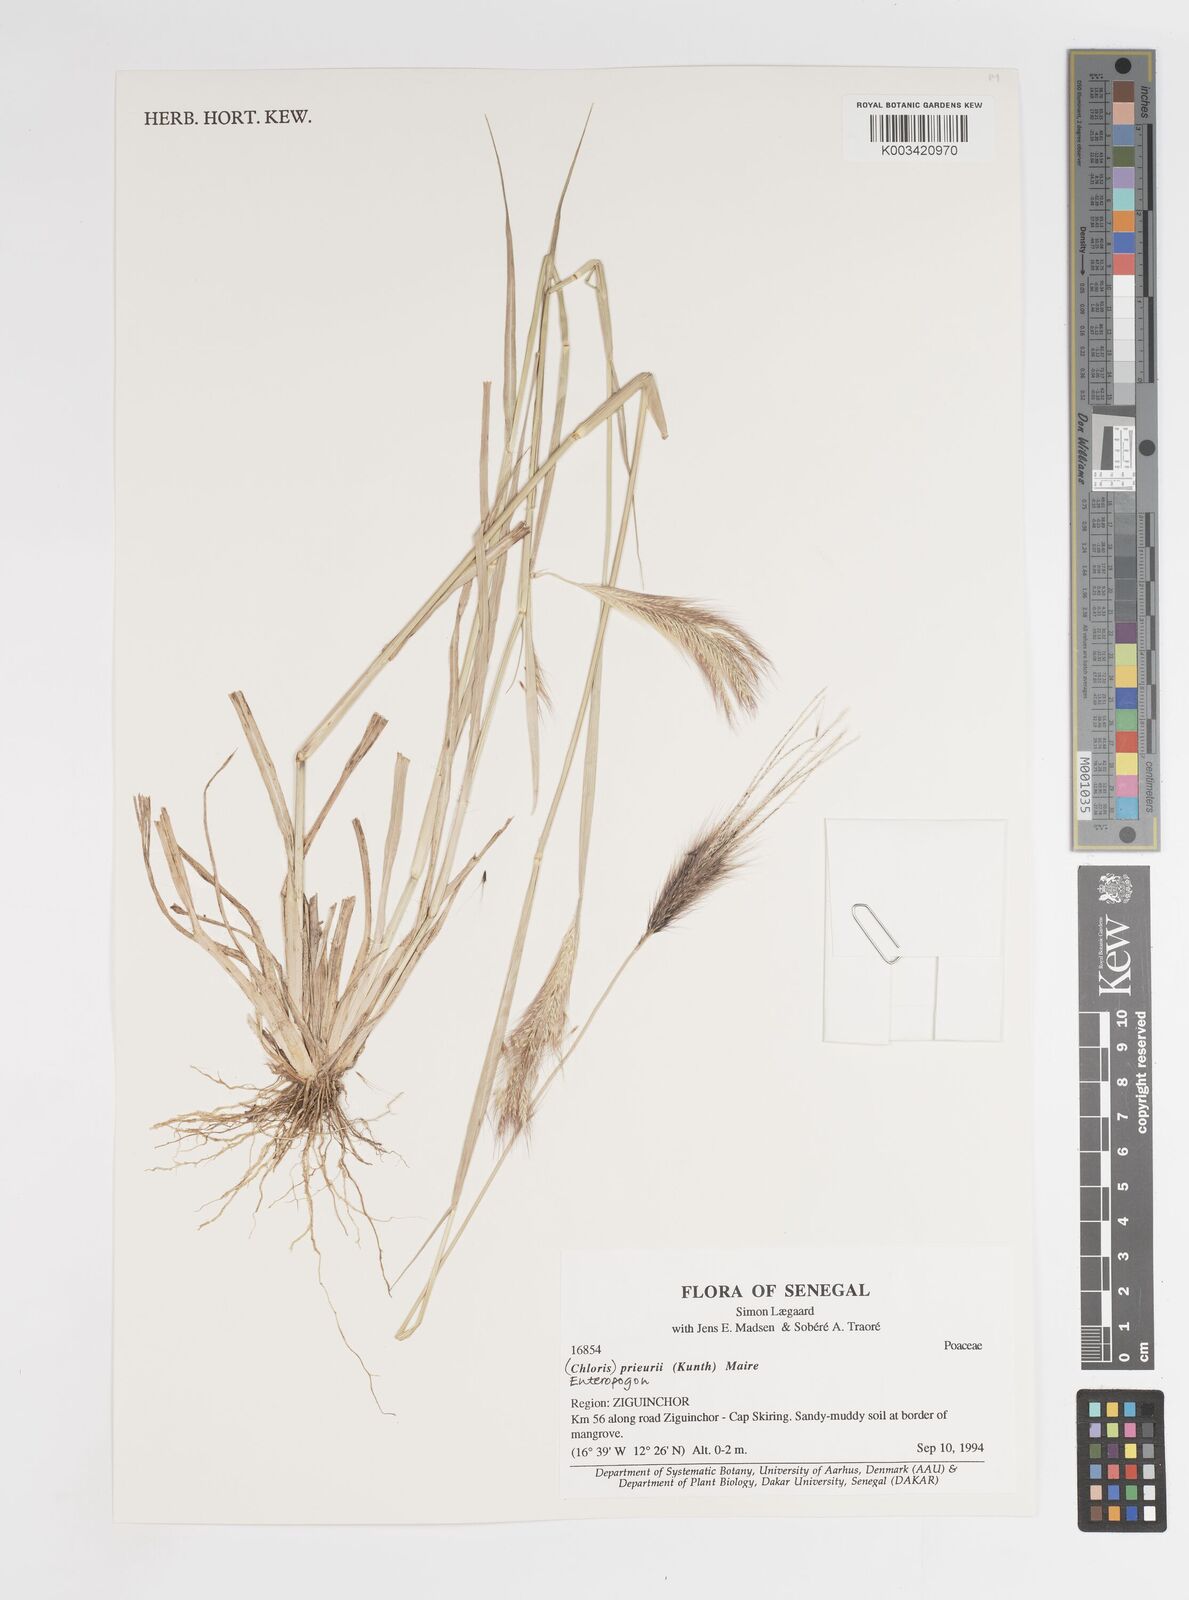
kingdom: Plantae
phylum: Tracheophyta
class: Liliopsida
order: Poales
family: Poaceae
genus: Enteropogon
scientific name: Enteropogon prieurii
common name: Prieur's umbrellagrass
